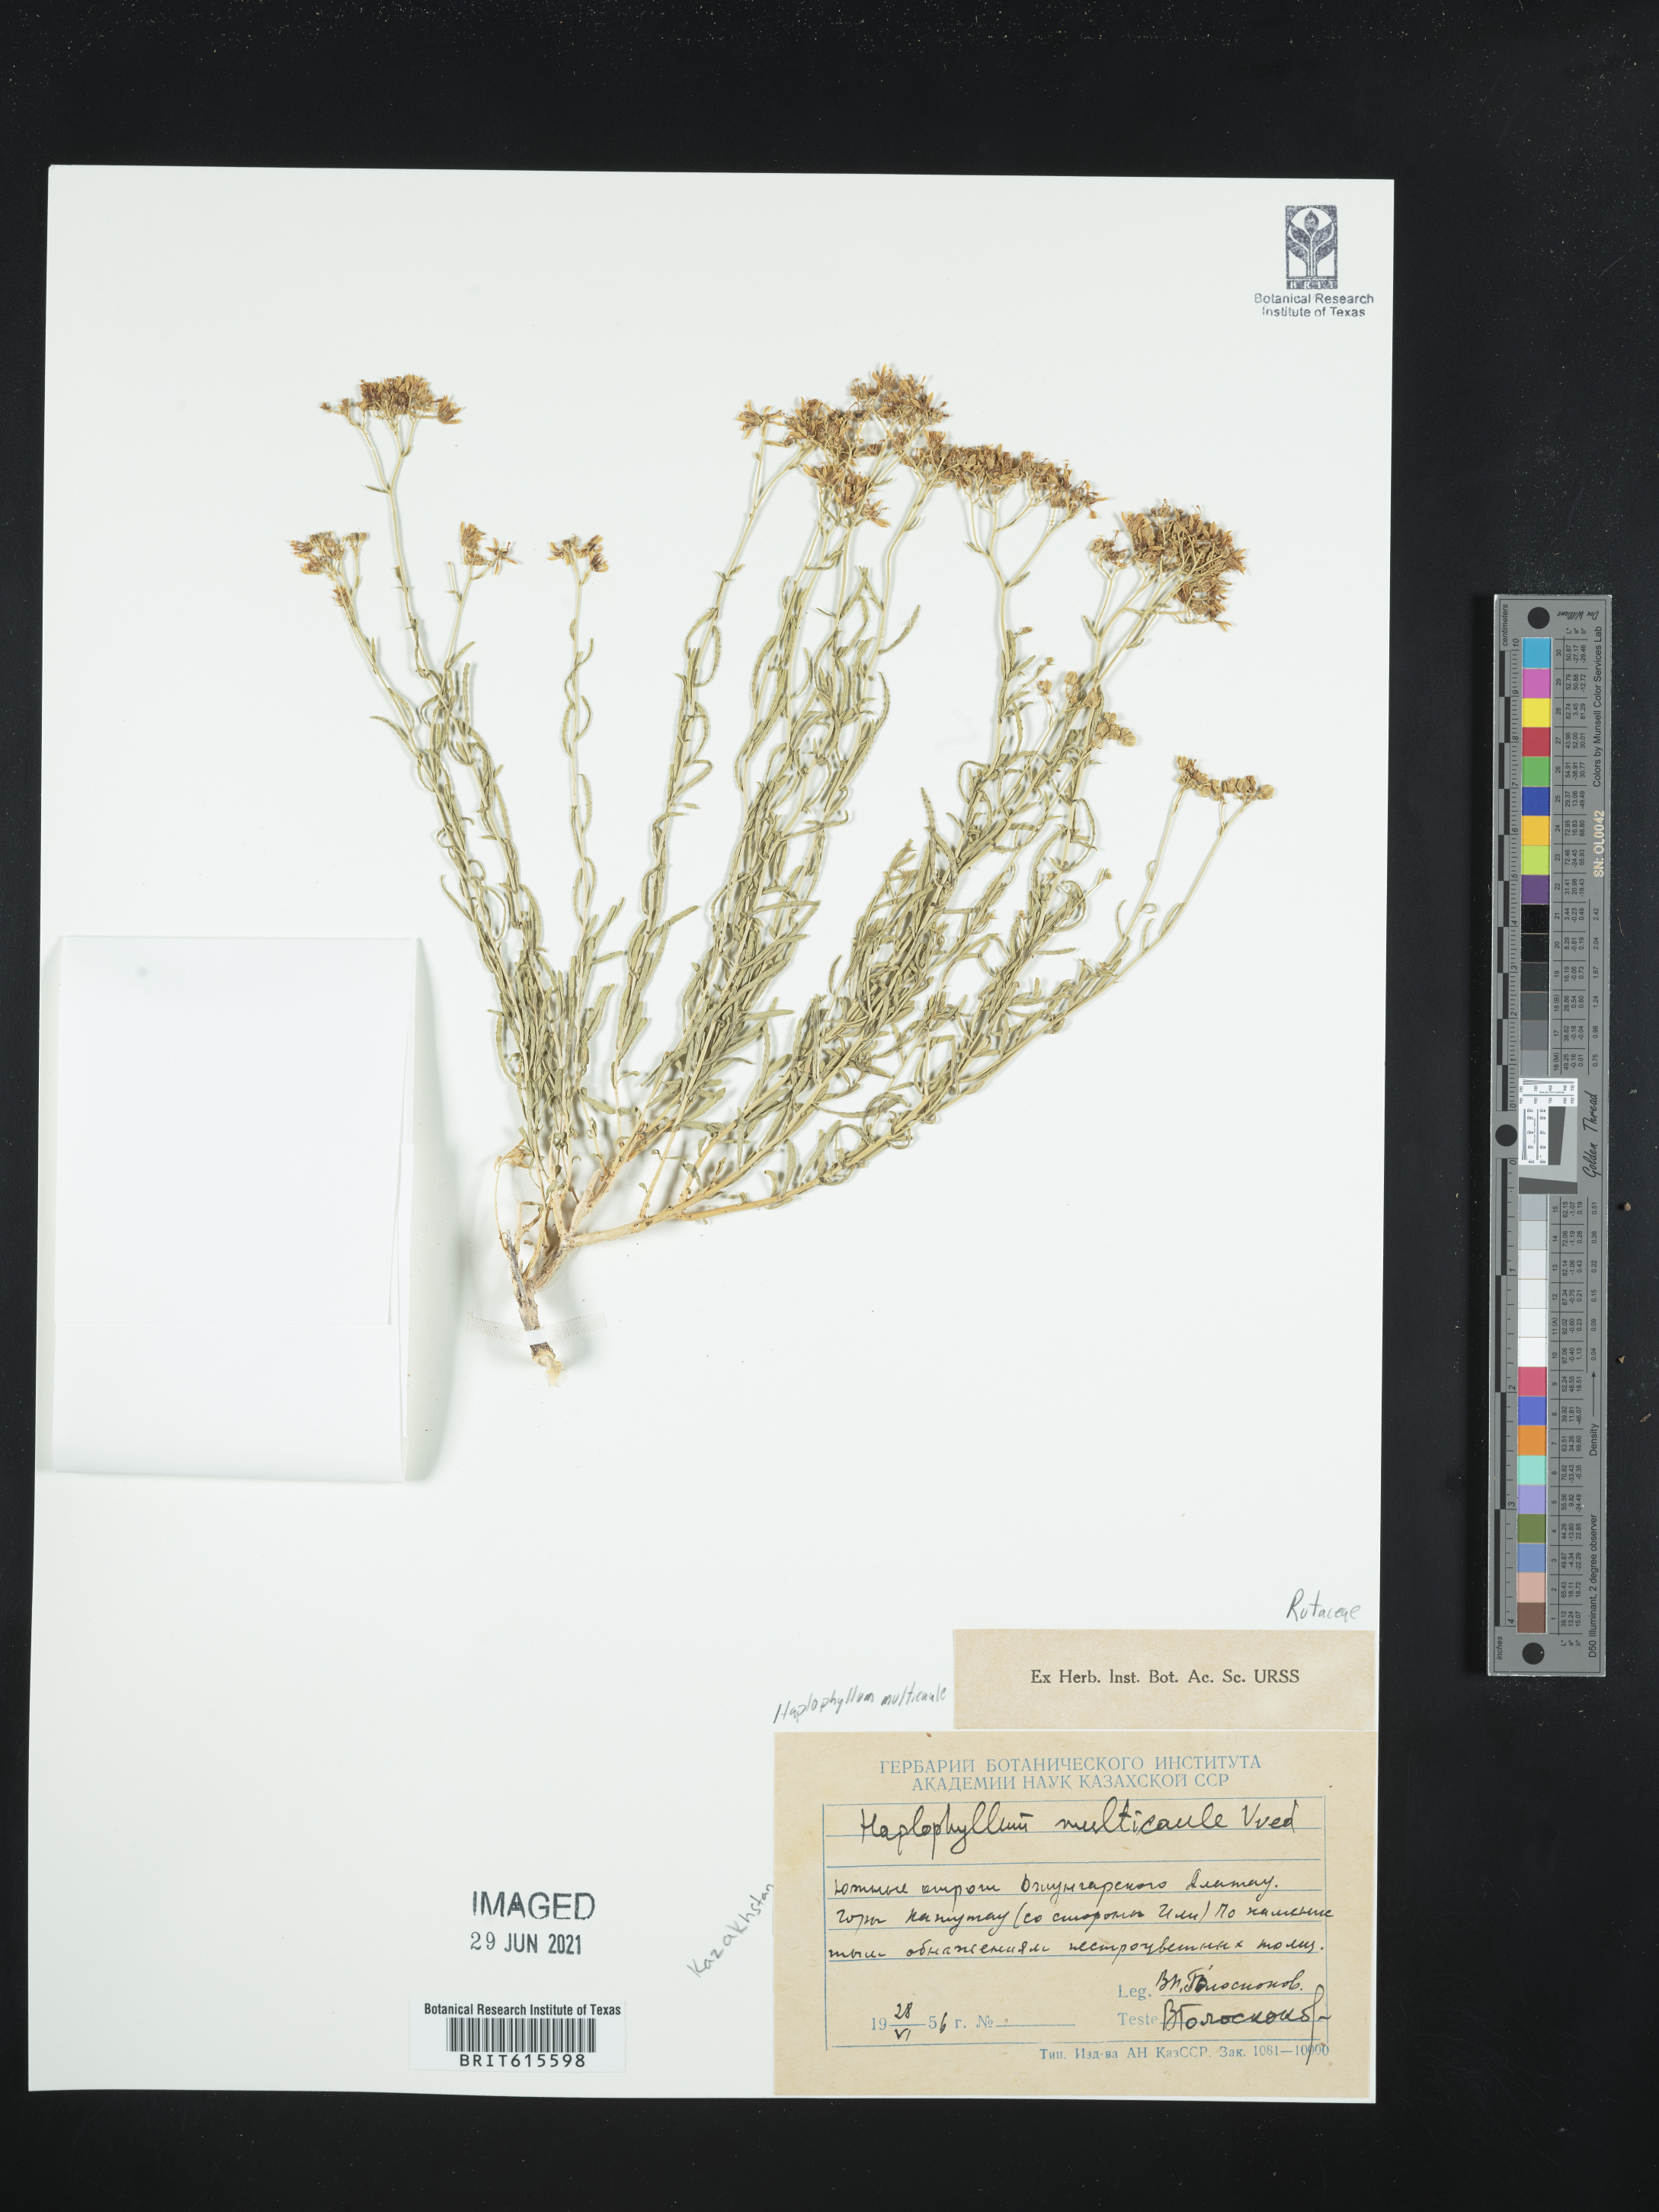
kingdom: Plantae
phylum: Tracheophyta
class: Magnoliopsida
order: Sapindales
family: Rutaceae
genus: Haplophyllum
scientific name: Haplophyllum multicaule
